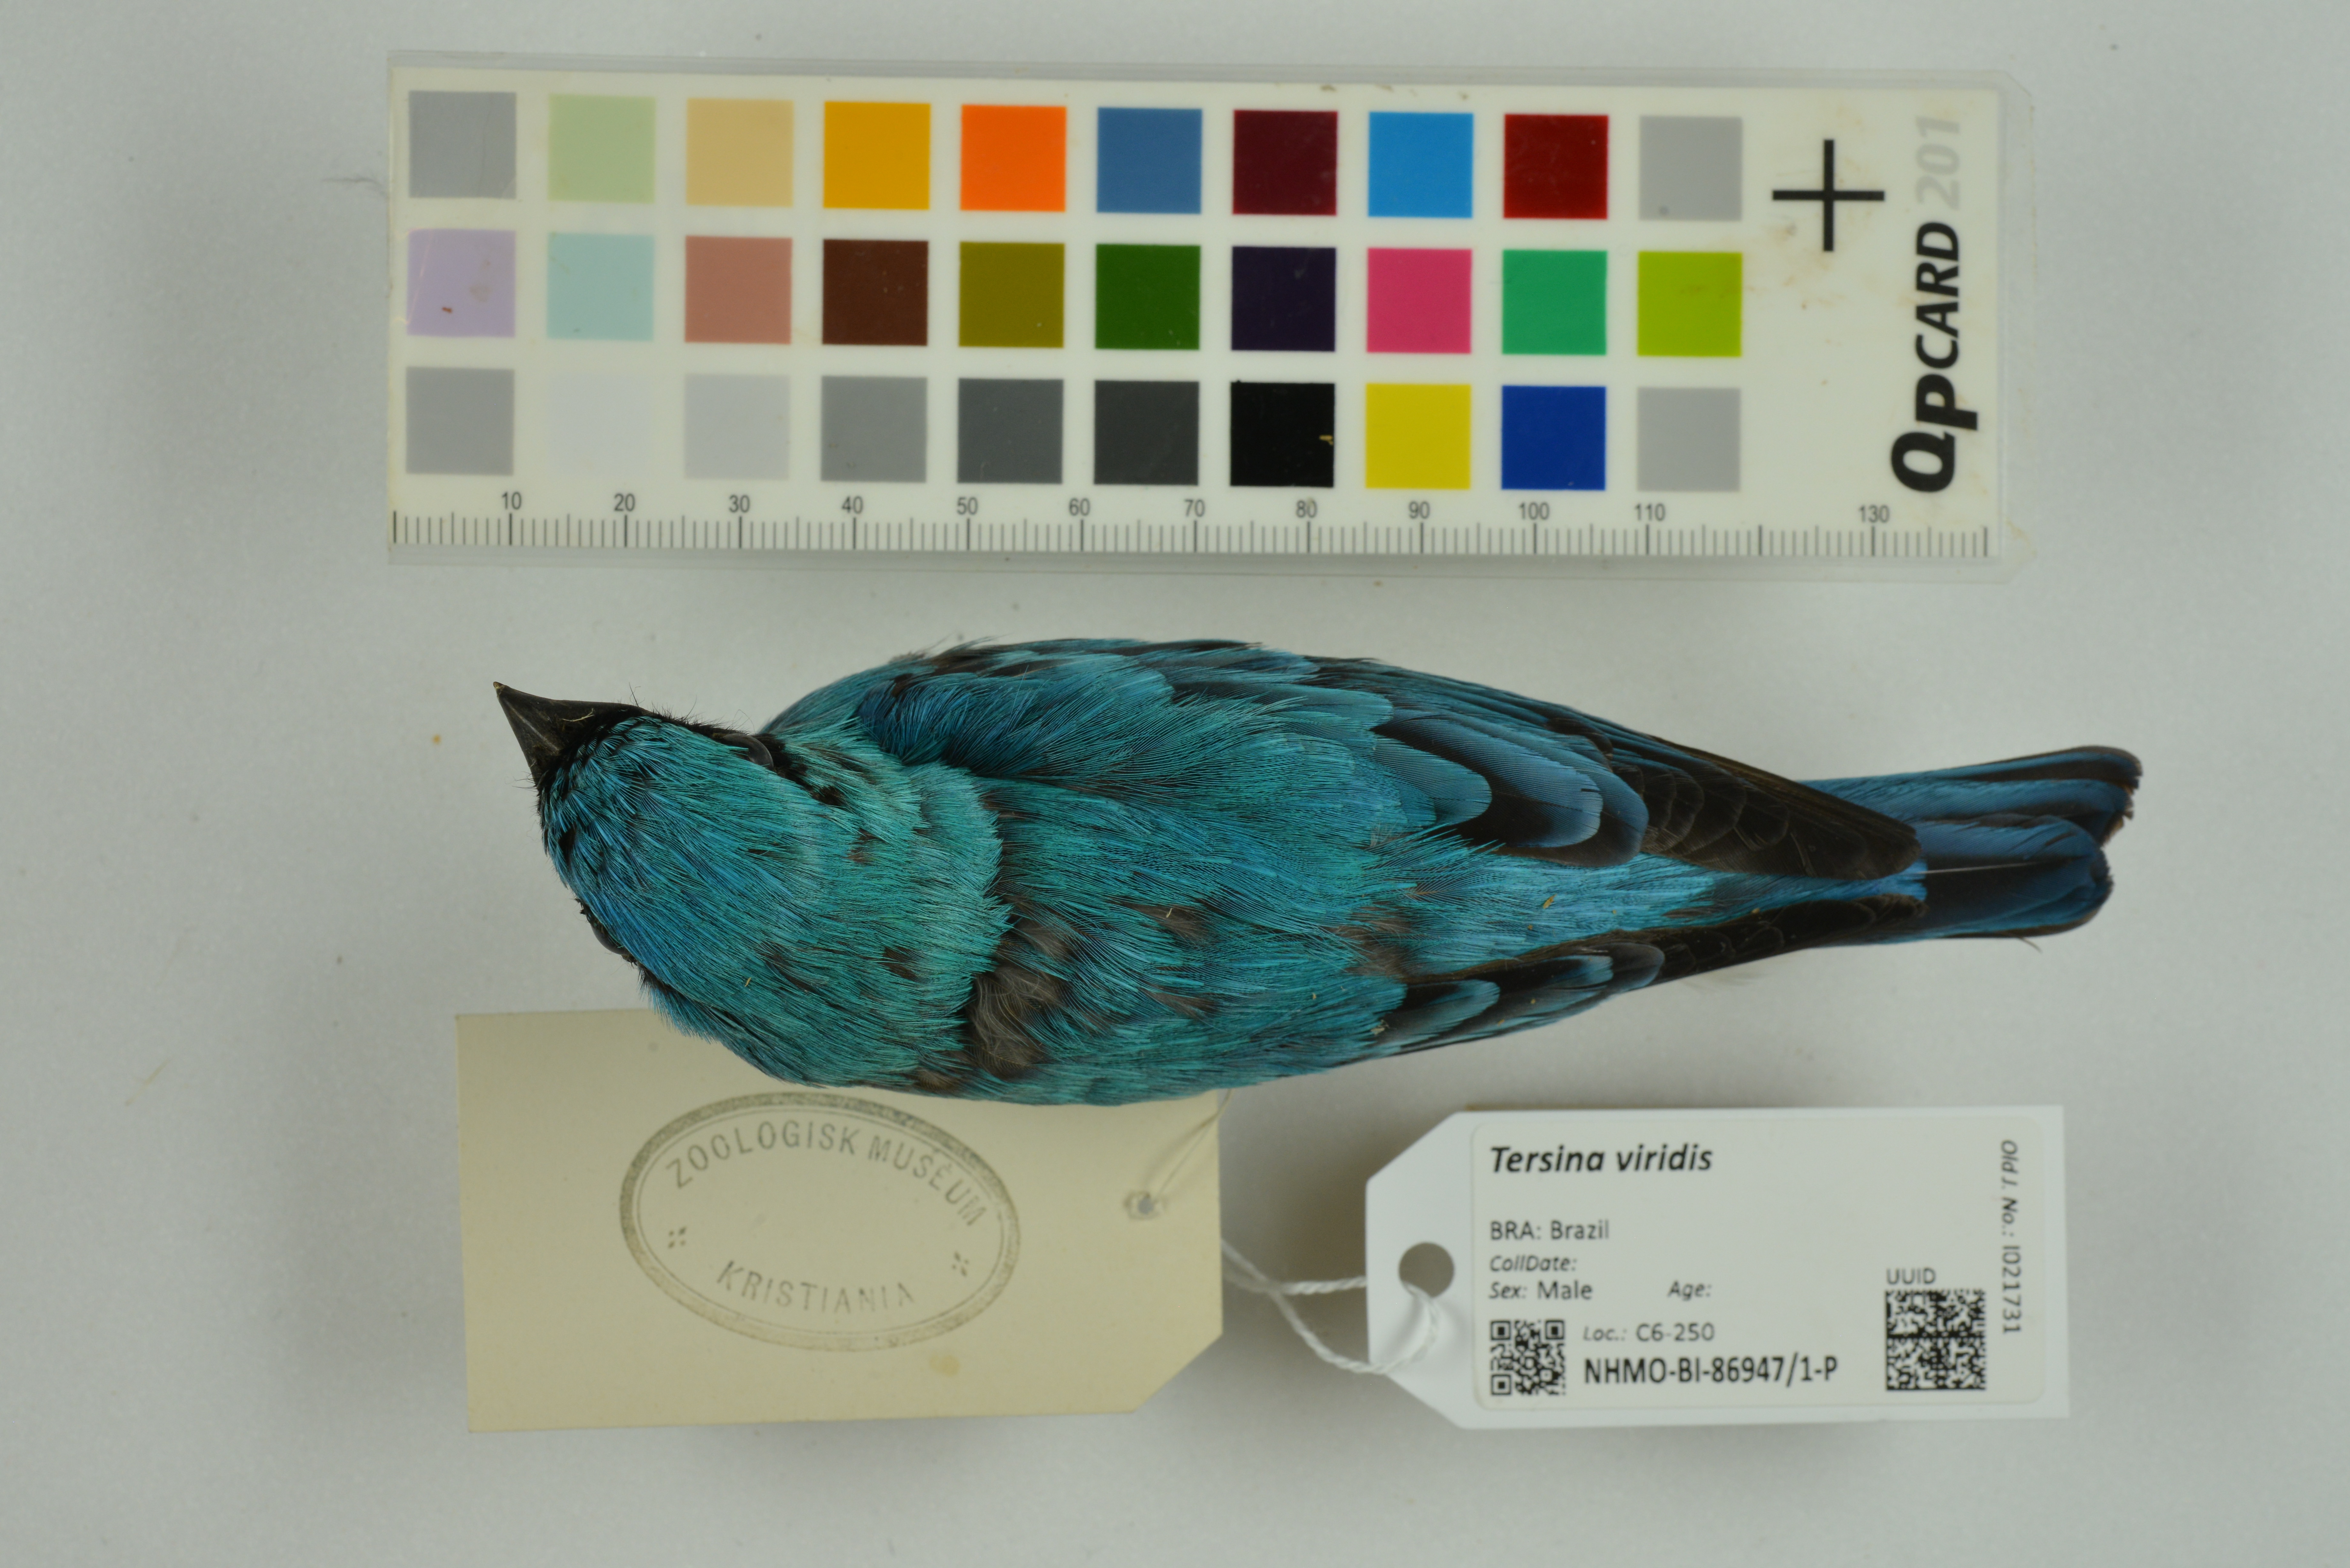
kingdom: Animalia
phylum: Chordata
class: Aves
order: Passeriformes
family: Thraupidae
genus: Tersina
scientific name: Tersina viridis
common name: Swallow tanager
